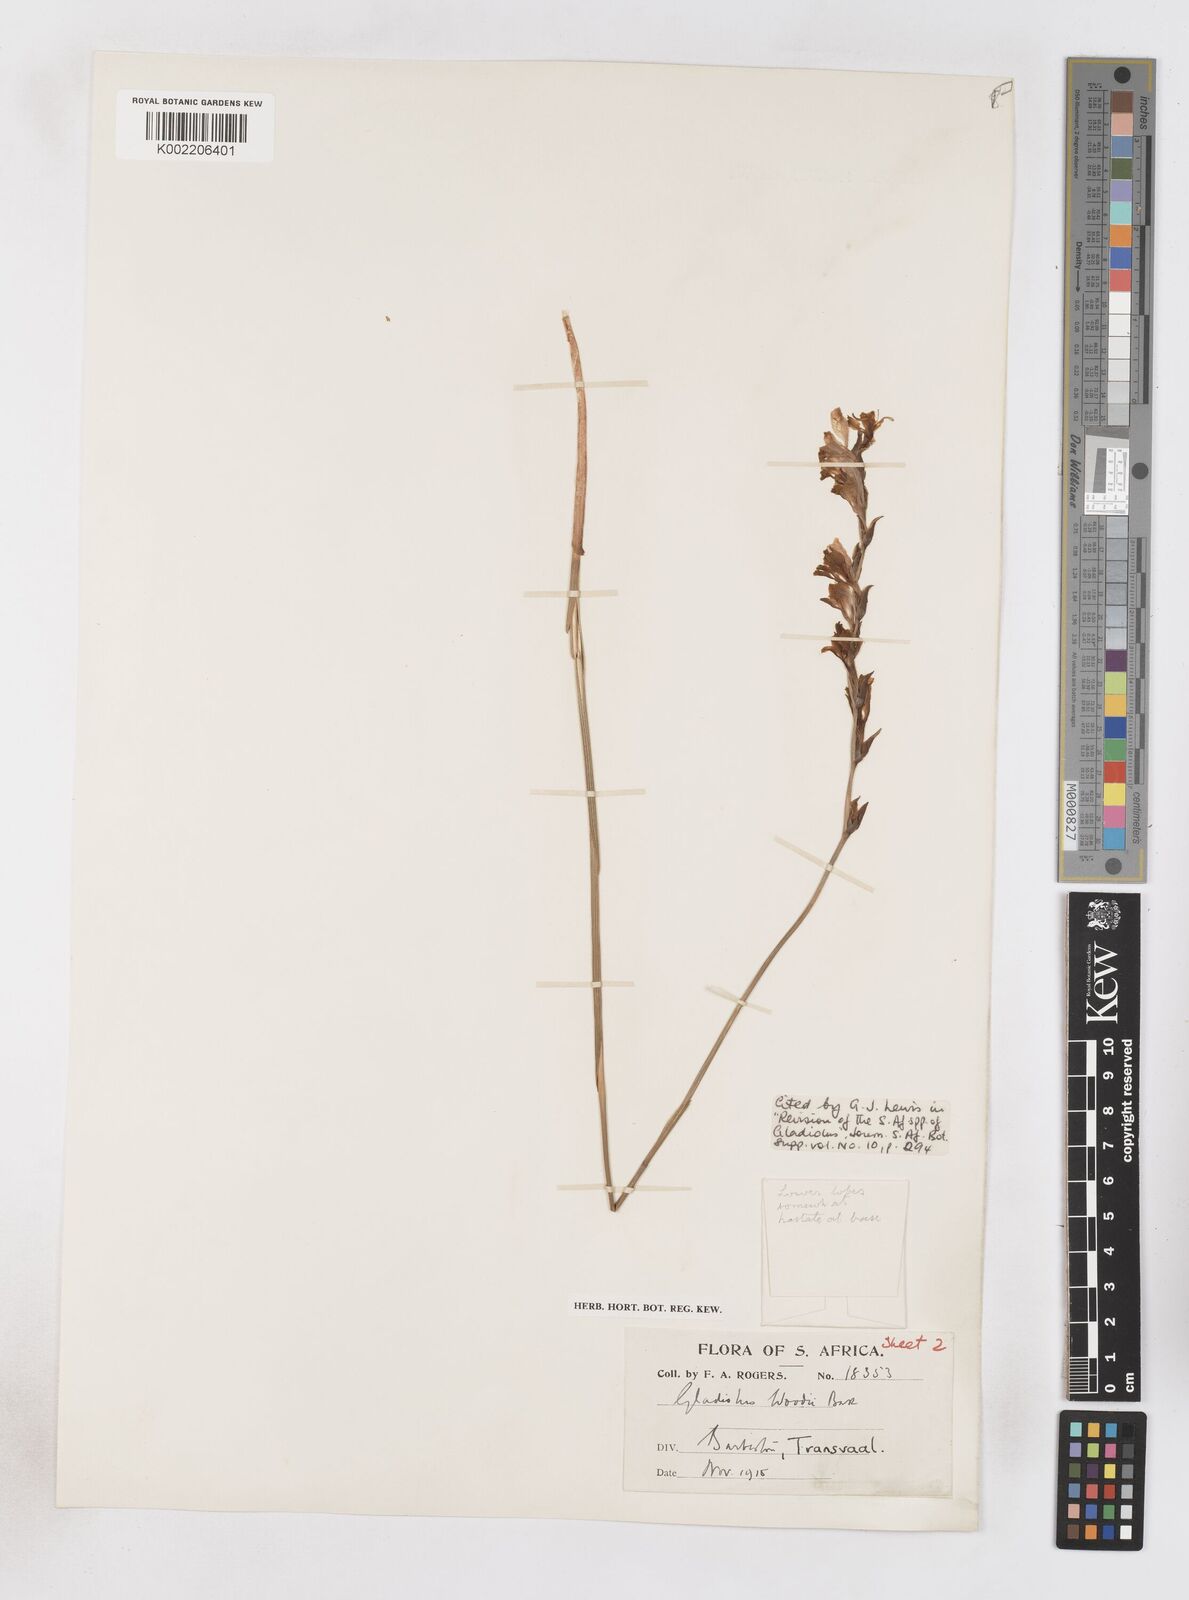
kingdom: Plantae
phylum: Tracheophyta
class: Liliopsida
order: Asparagales
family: Iridaceae
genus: Gladiolus
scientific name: Gladiolus woodii
